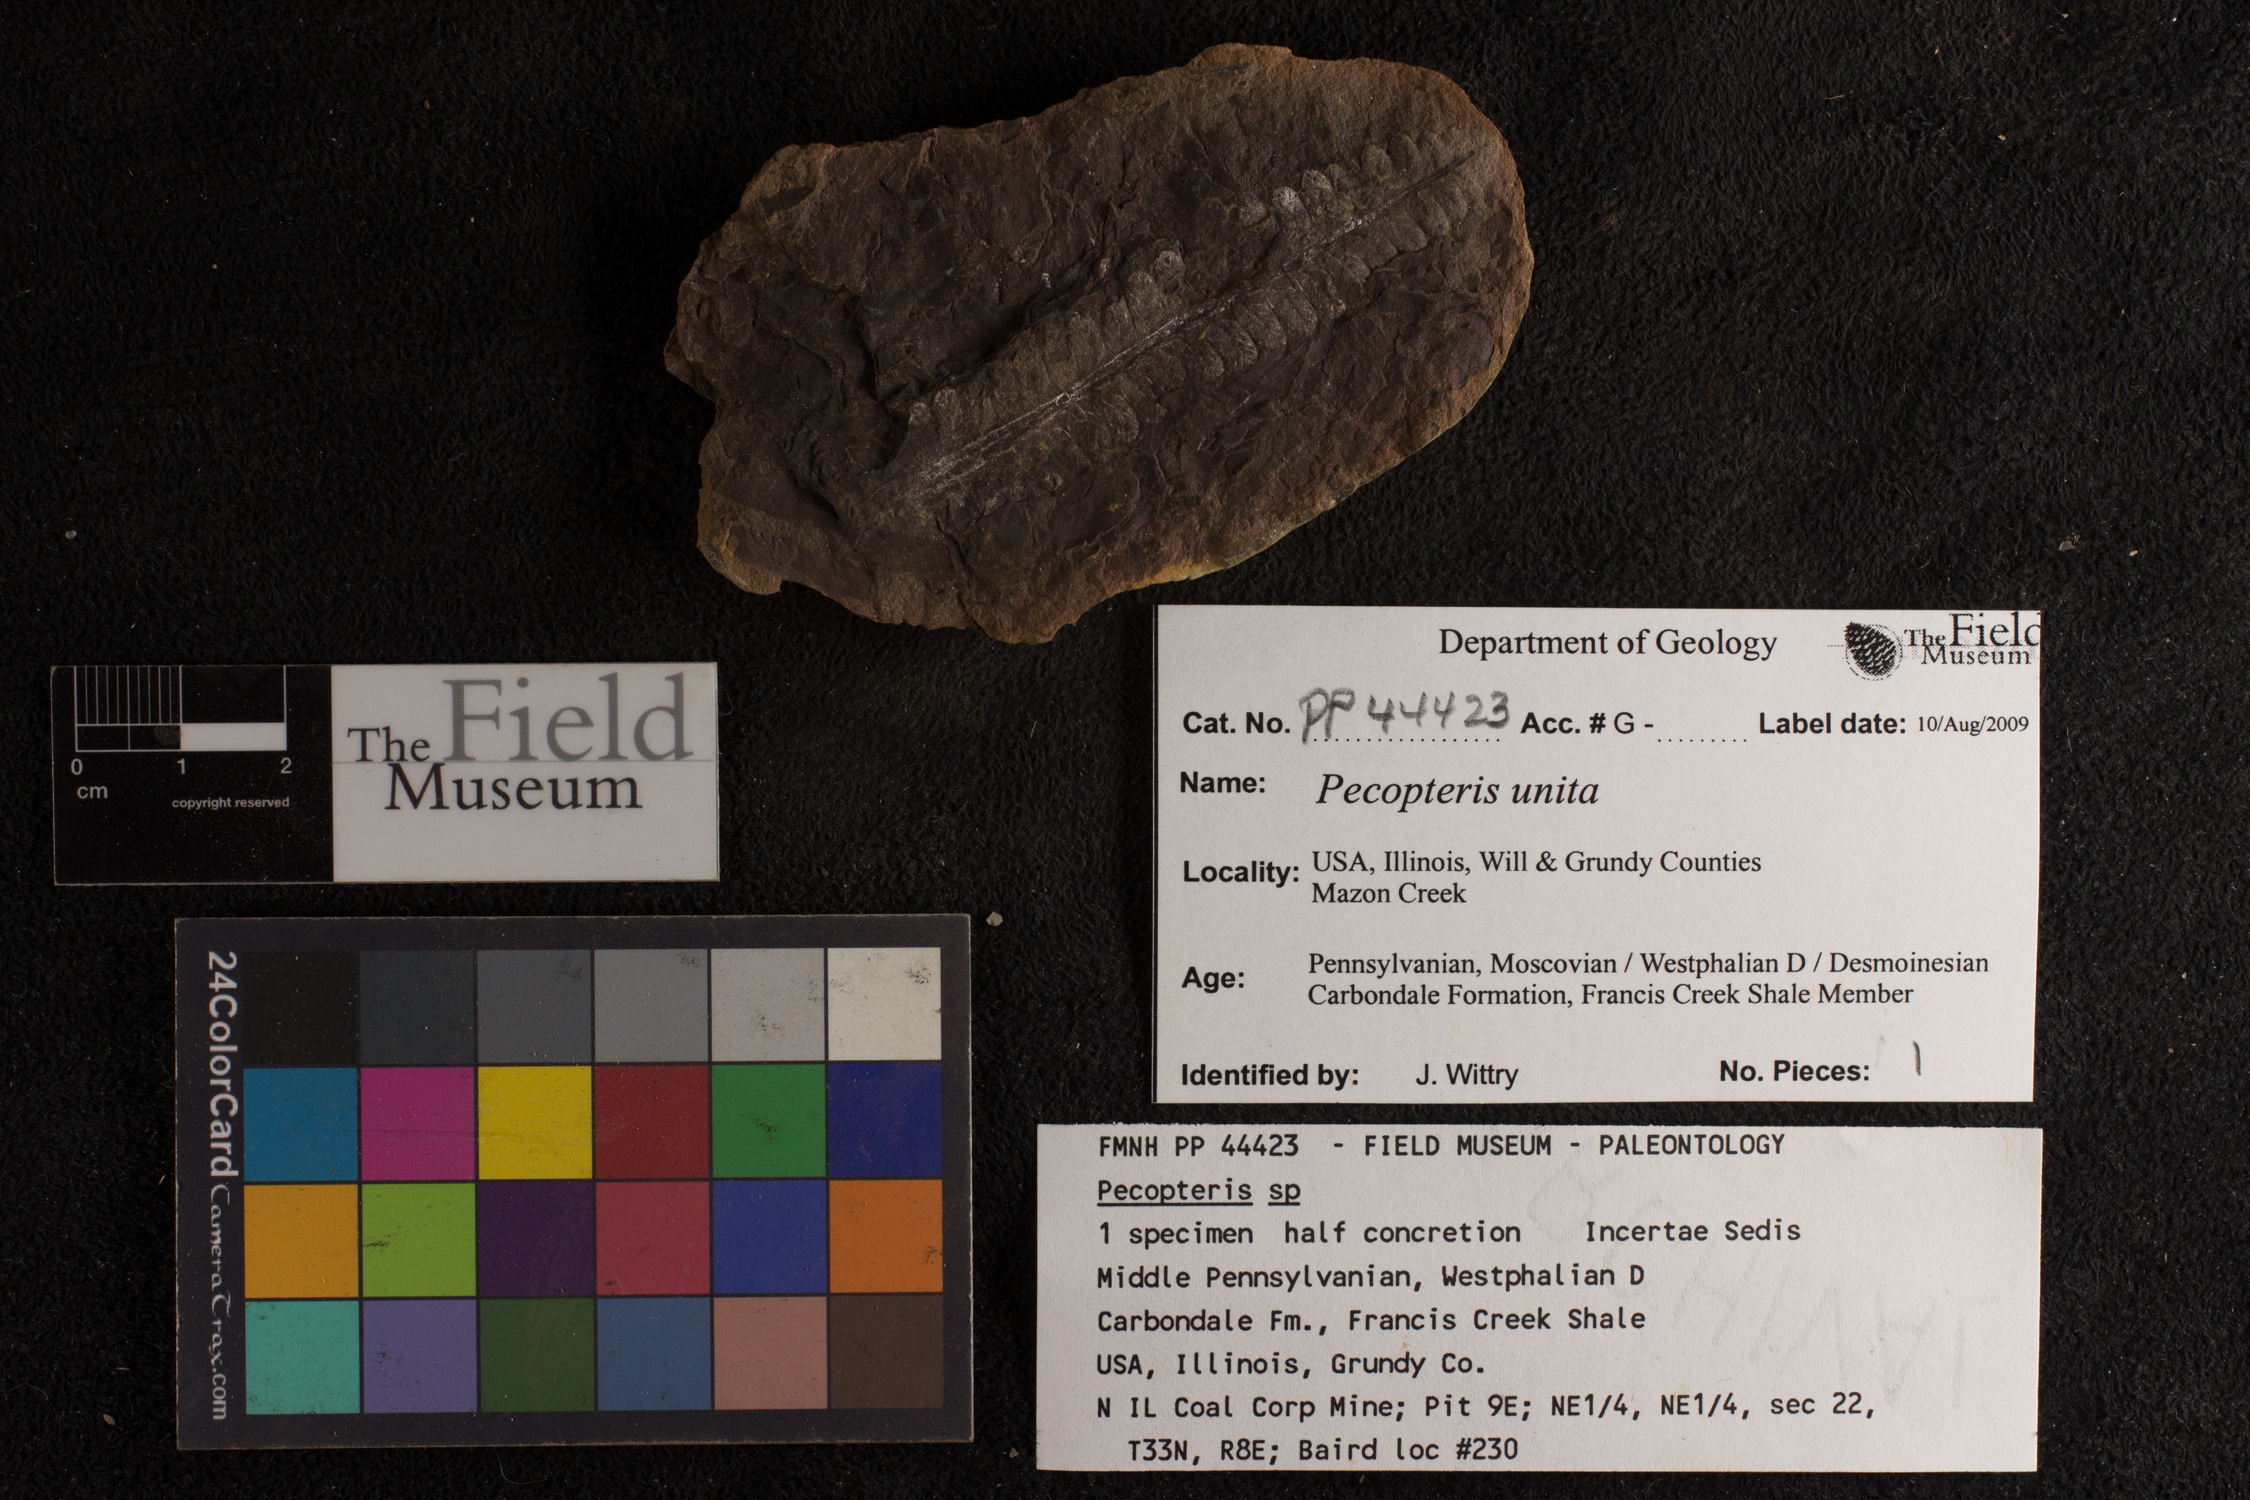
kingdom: Plantae
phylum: Tracheophyta
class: Polypodiopsida
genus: Diplazites
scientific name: Diplazites
